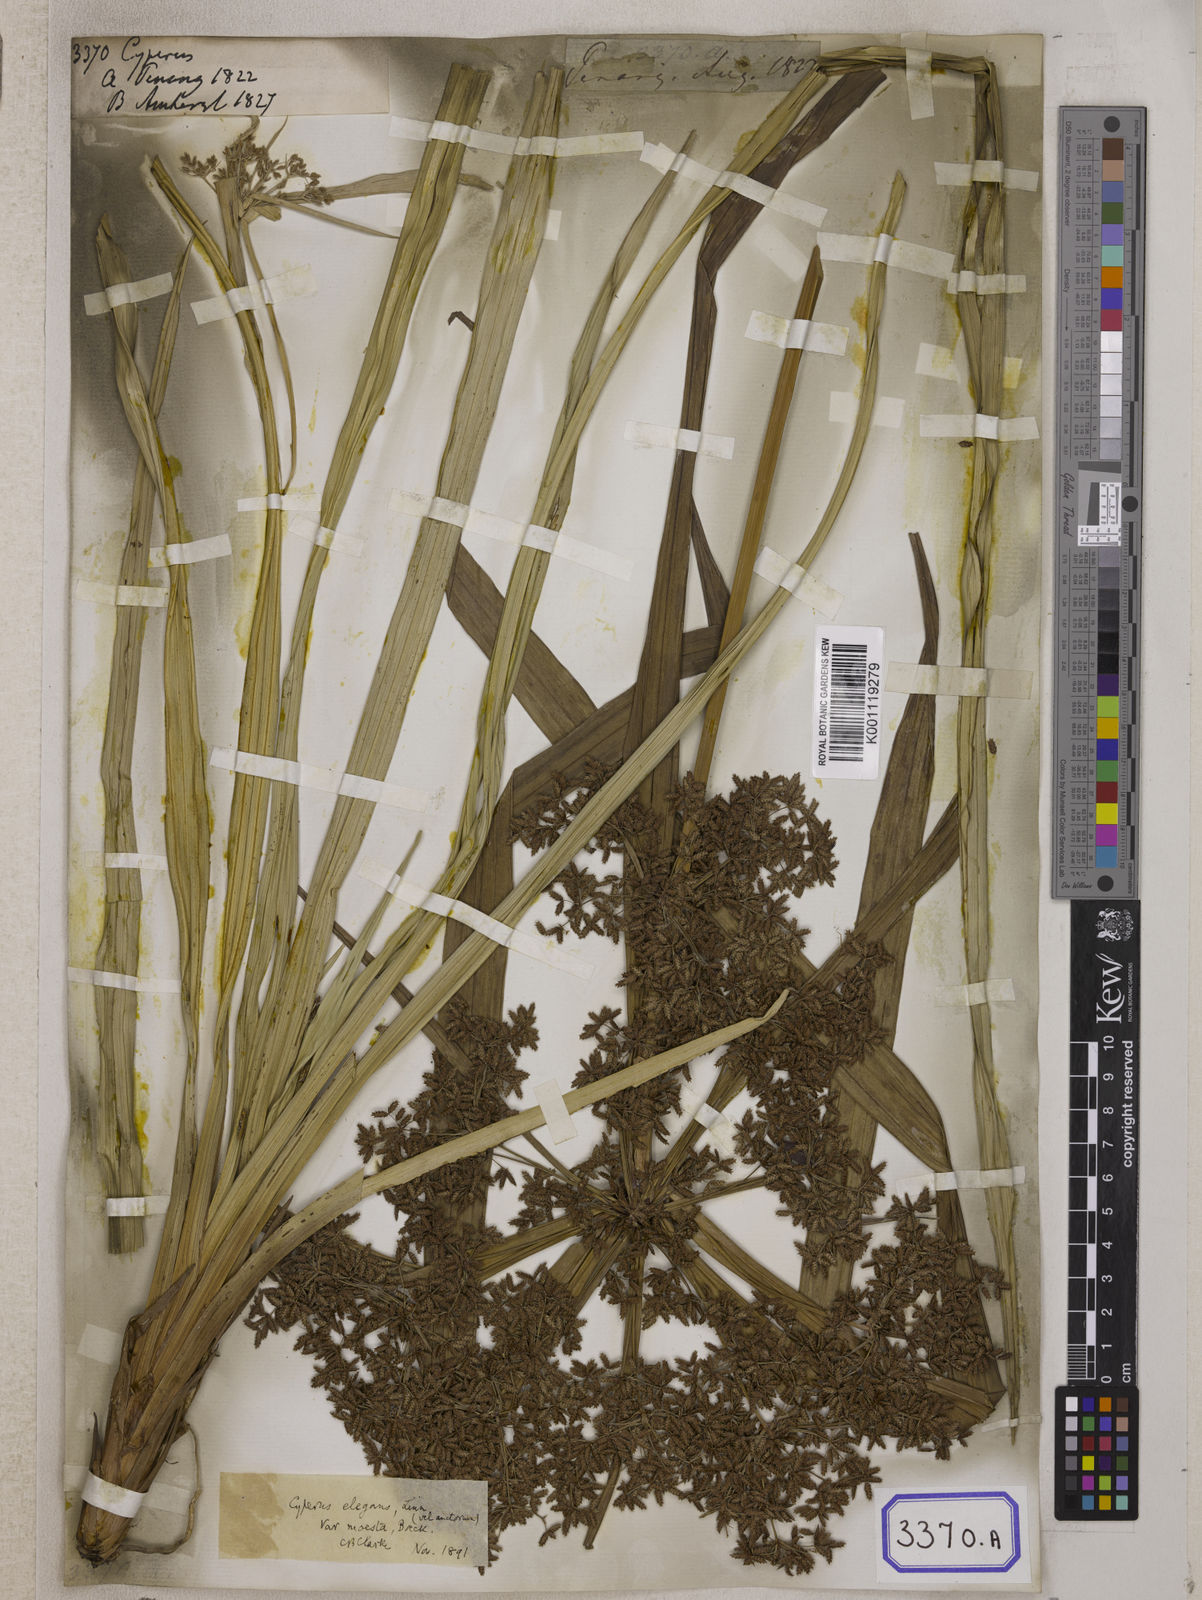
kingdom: Plantae
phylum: Tracheophyta
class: Liliopsida
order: Poales
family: Cyperaceae
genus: Cyperus
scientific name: Cyperus
